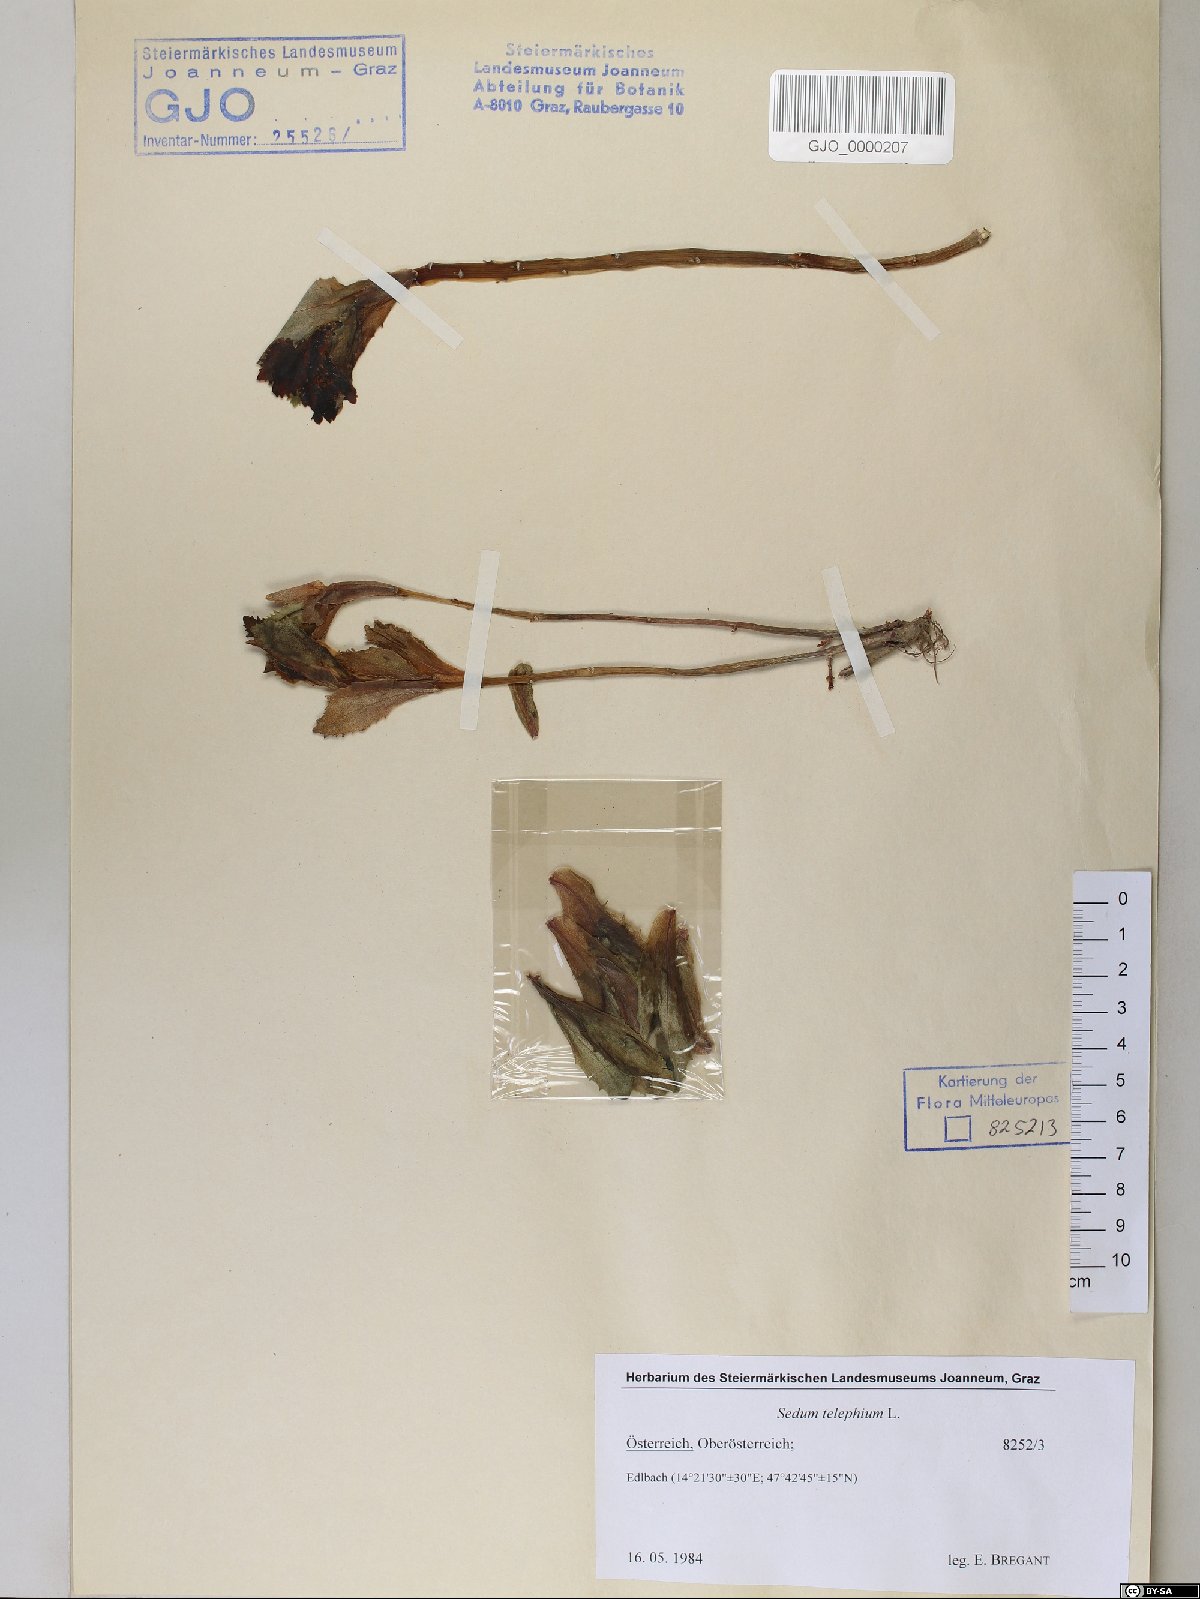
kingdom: Plantae
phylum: Tracheophyta
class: Magnoliopsida
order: Saxifragales
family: Crassulaceae
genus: Hylotelephium
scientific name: Hylotelephium telephium
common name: Live-forever
